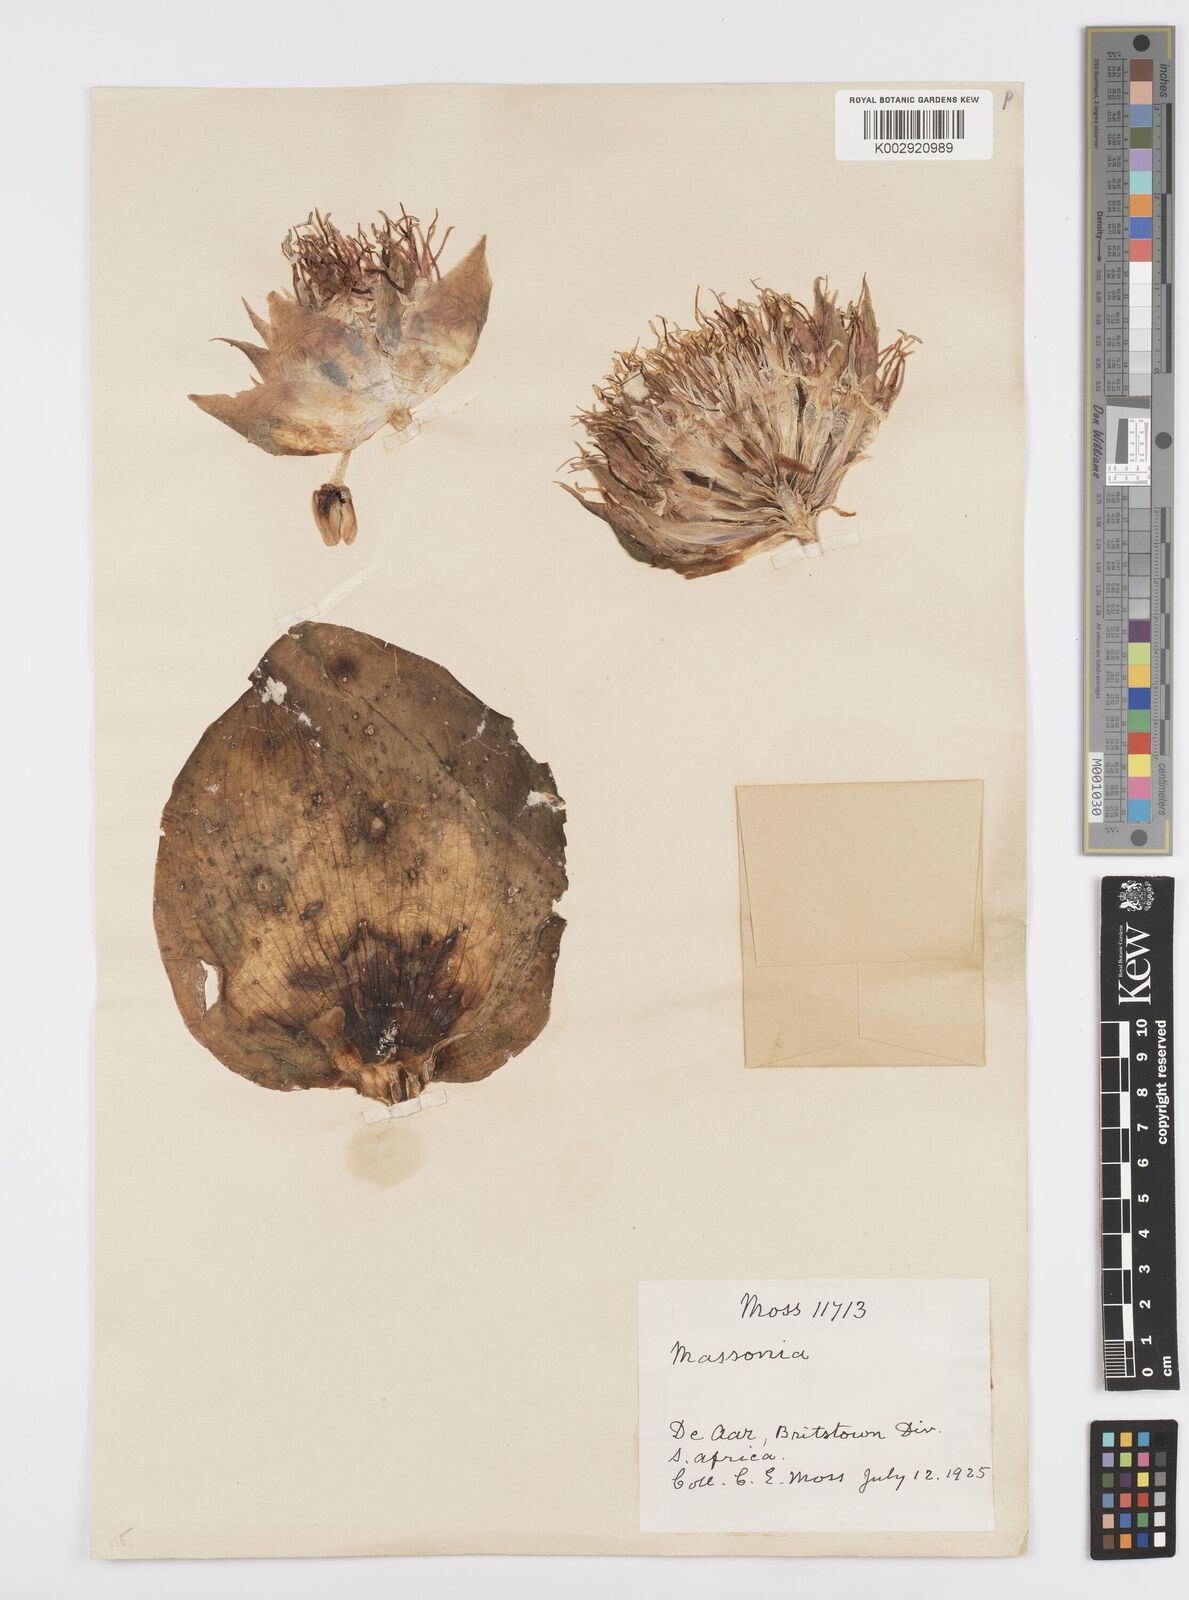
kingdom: Plantae
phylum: Tracheophyta
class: Liliopsida
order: Asparagales
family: Asparagaceae
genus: Massonia
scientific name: Massonia depressa
